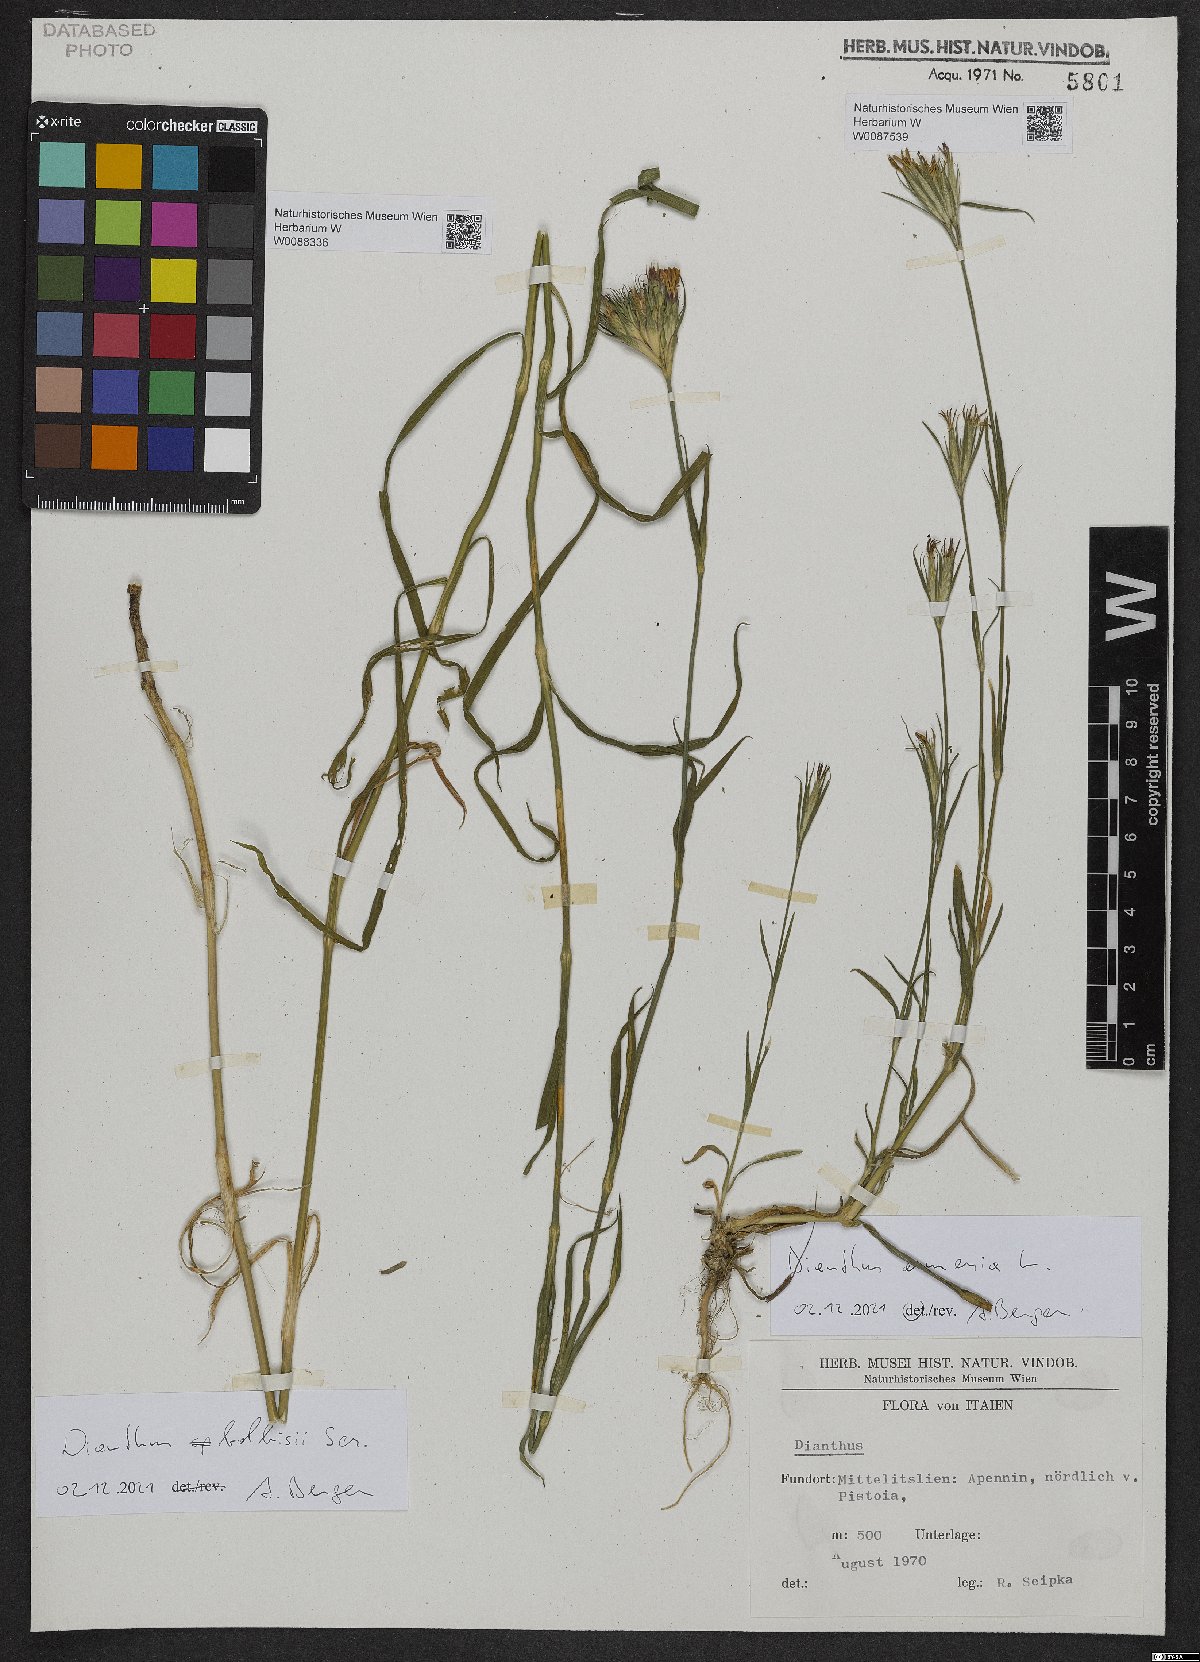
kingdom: Plantae
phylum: Tracheophyta
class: Magnoliopsida
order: Caryophyllales
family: Caryophyllaceae
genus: Dianthus
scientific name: Dianthus balbisii
